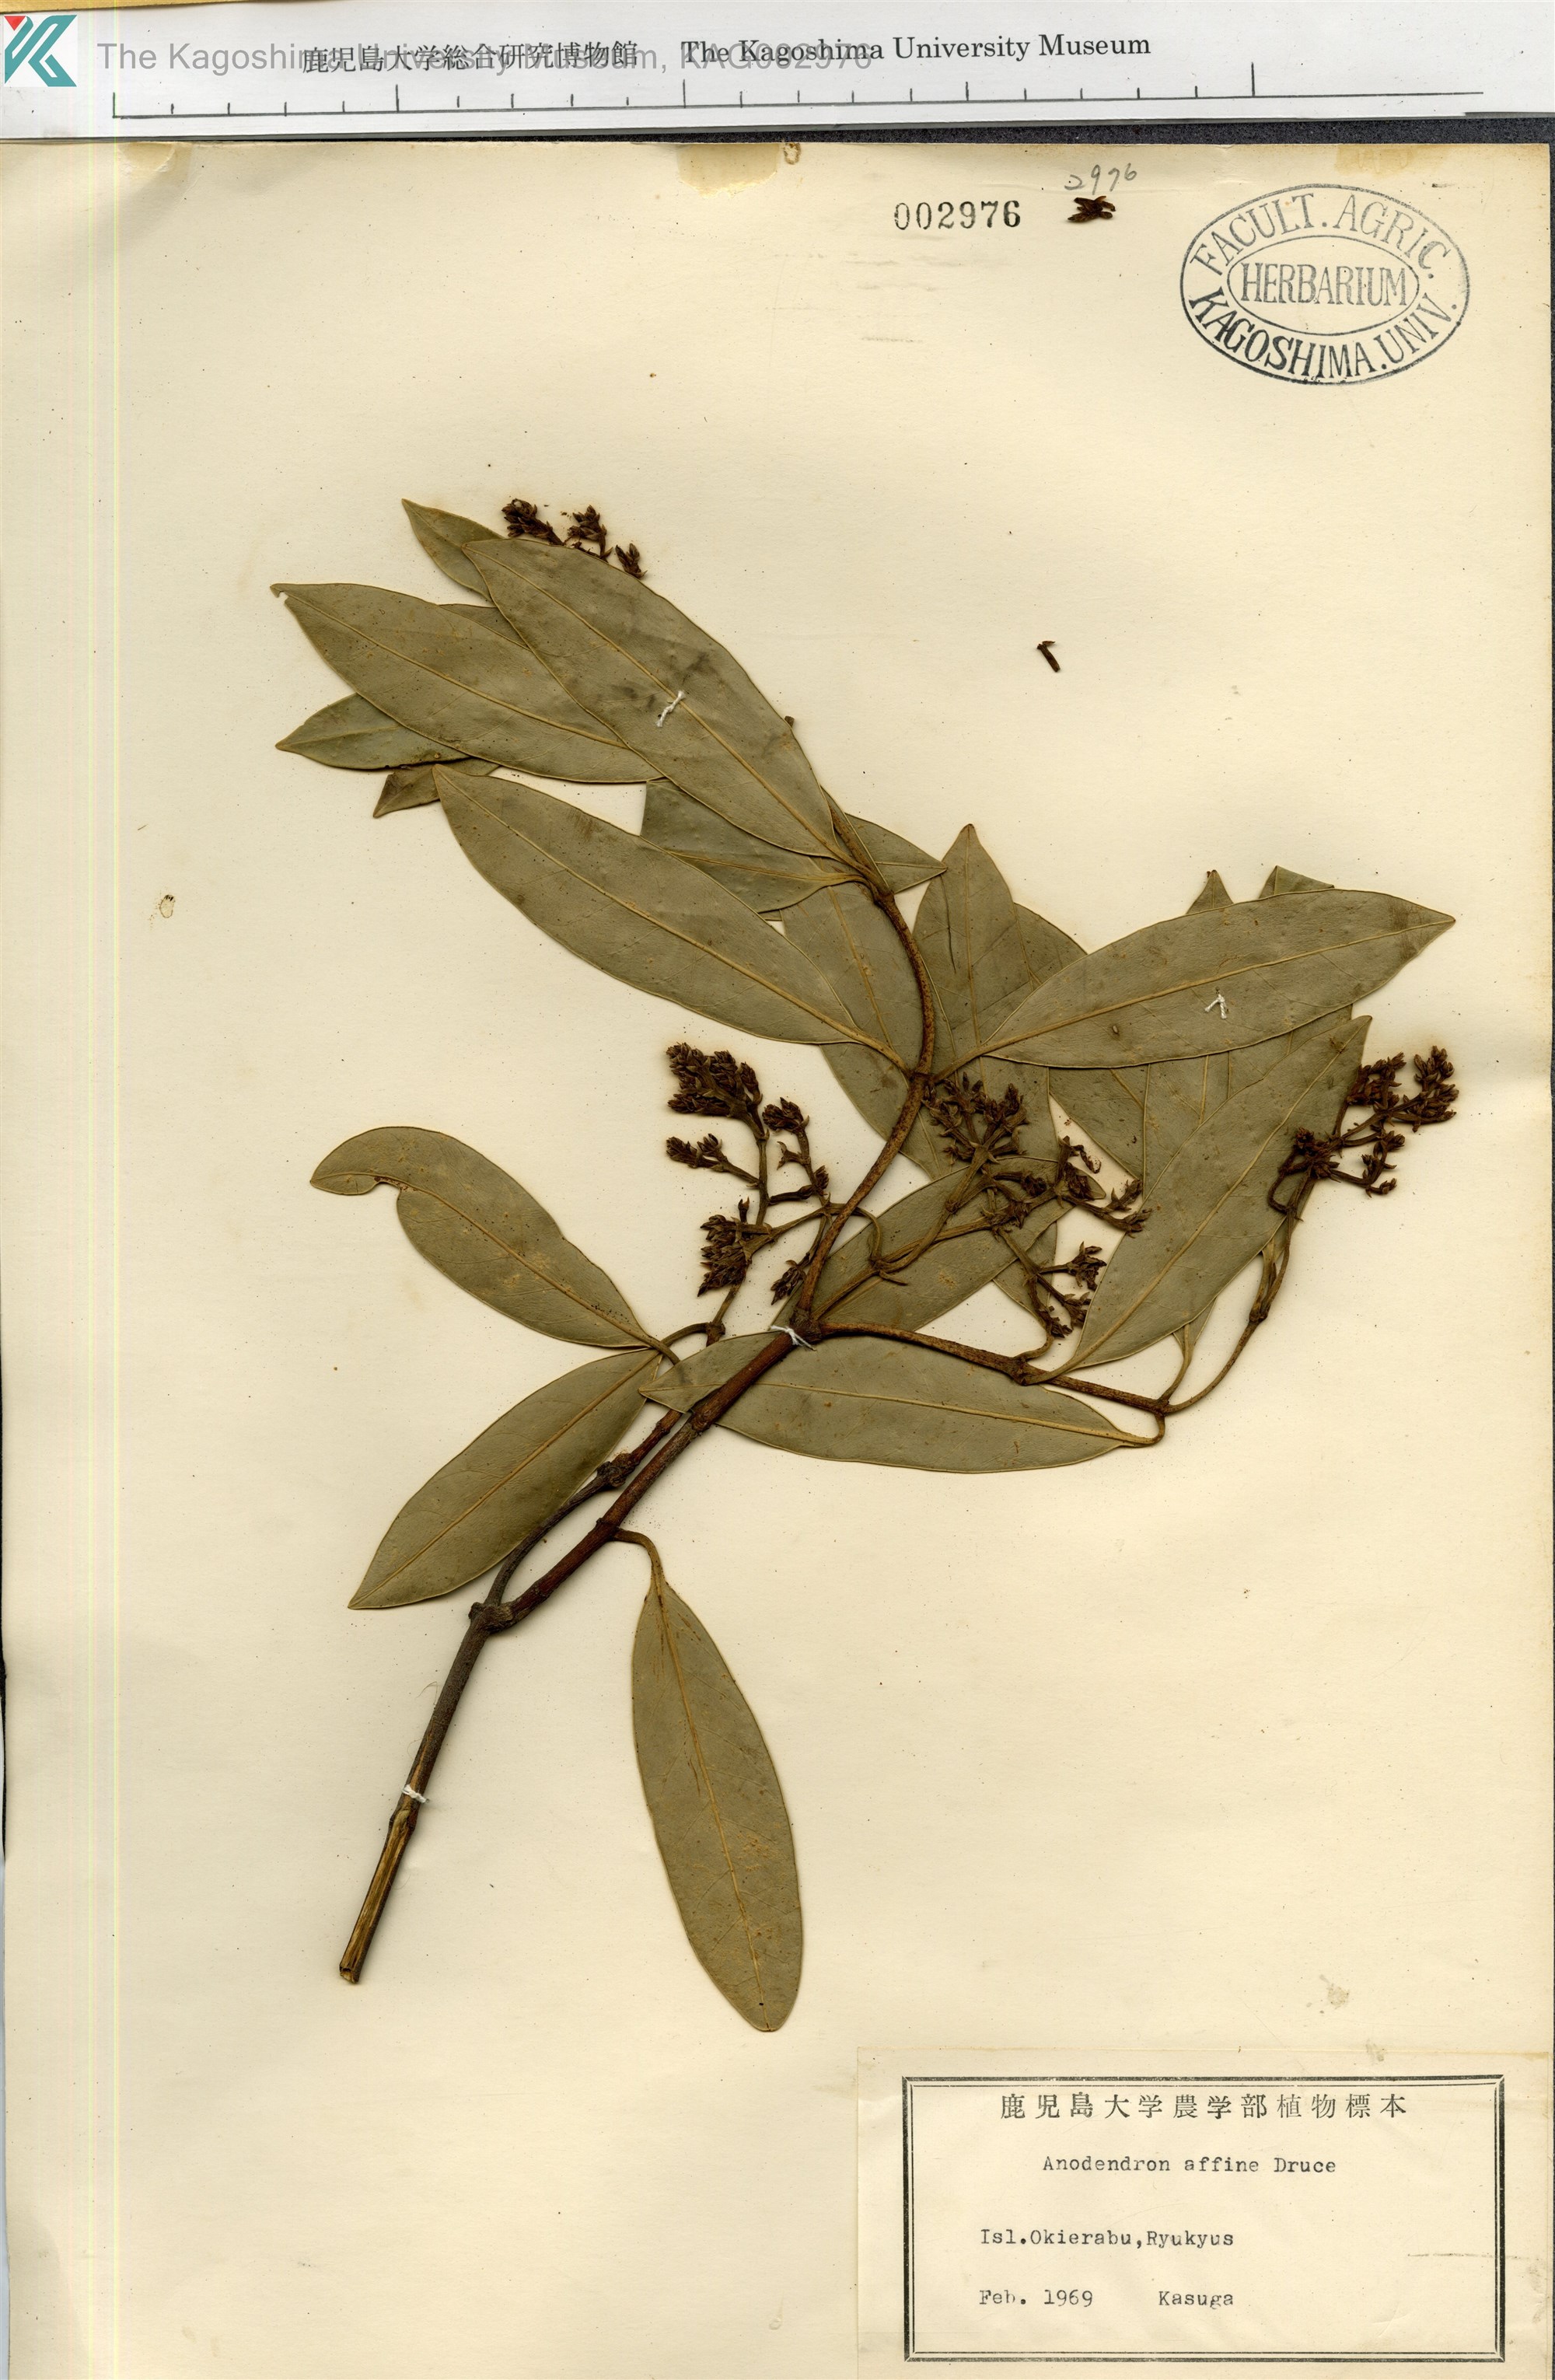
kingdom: Plantae
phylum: Tracheophyta
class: Magnoliopsida
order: Gentianales
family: Apocynaceae
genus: Anodendron
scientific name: Anodendron affine
